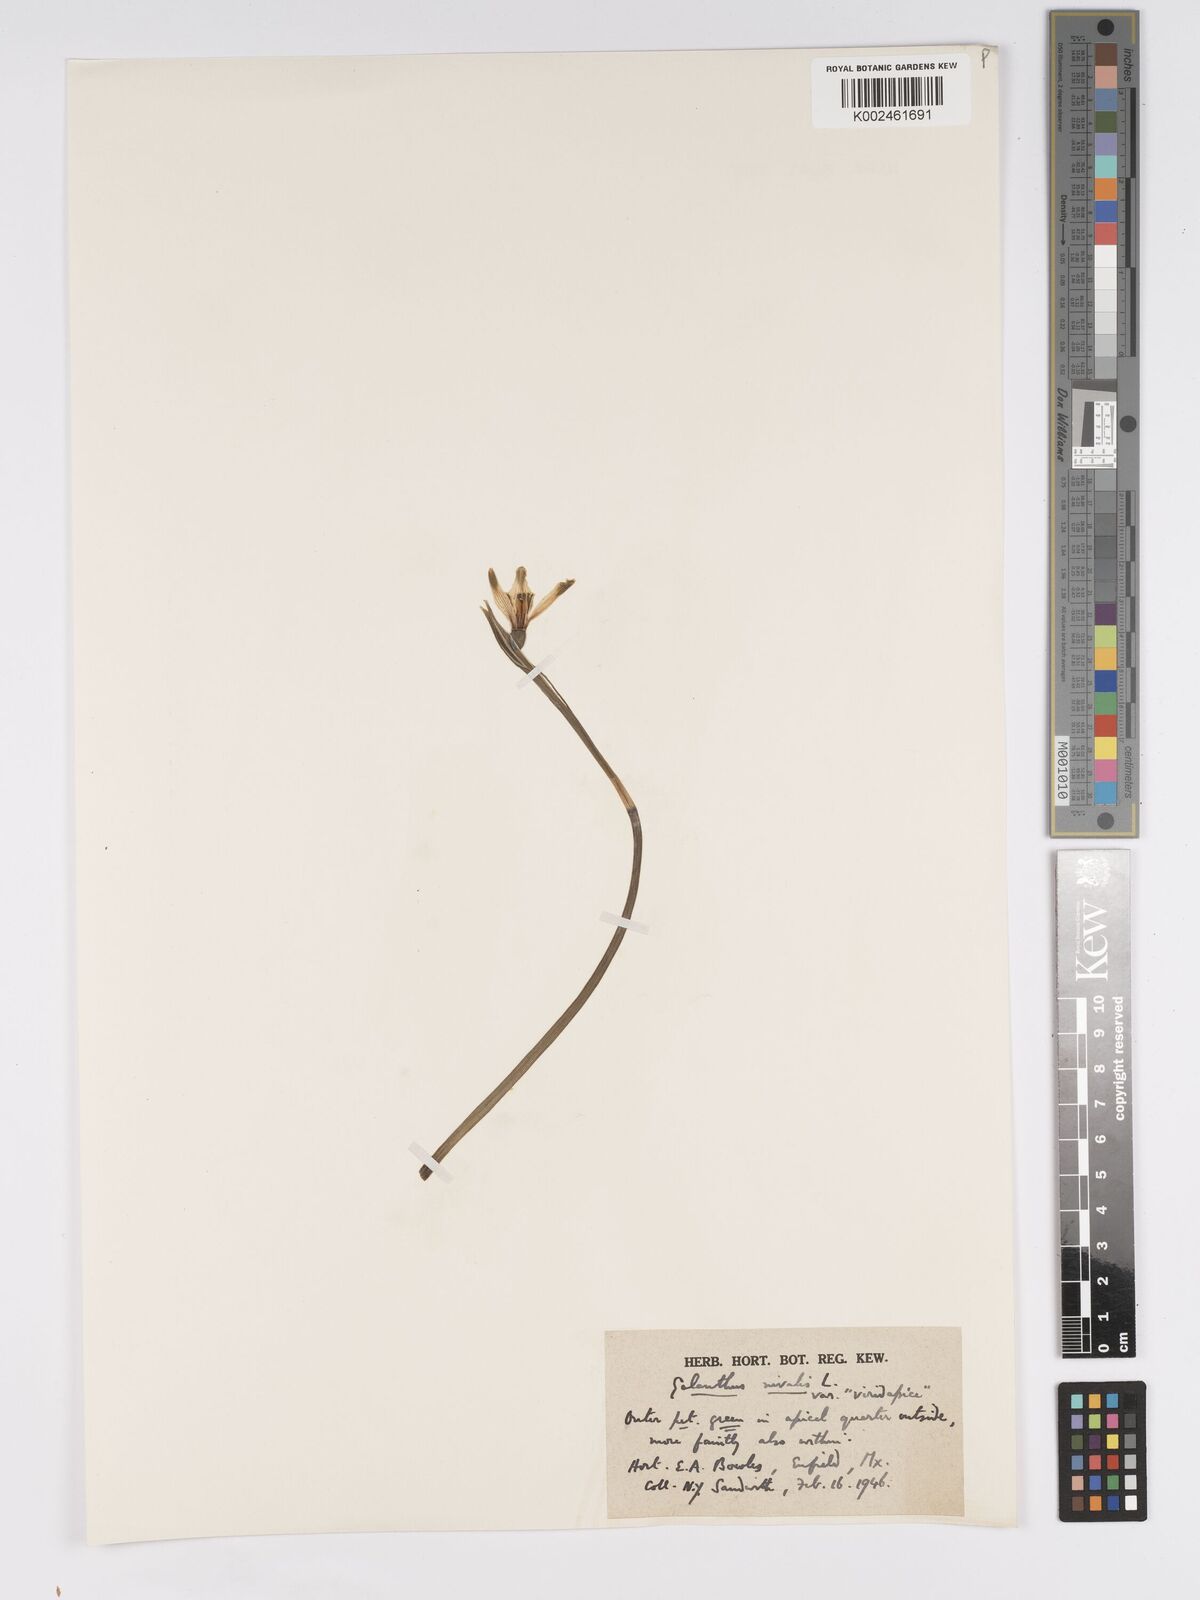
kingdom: Plantae
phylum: Tracheophyta
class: Liliopsida
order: Asparagales
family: Amaryllidaceae
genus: Galanthus
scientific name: Galanthus
